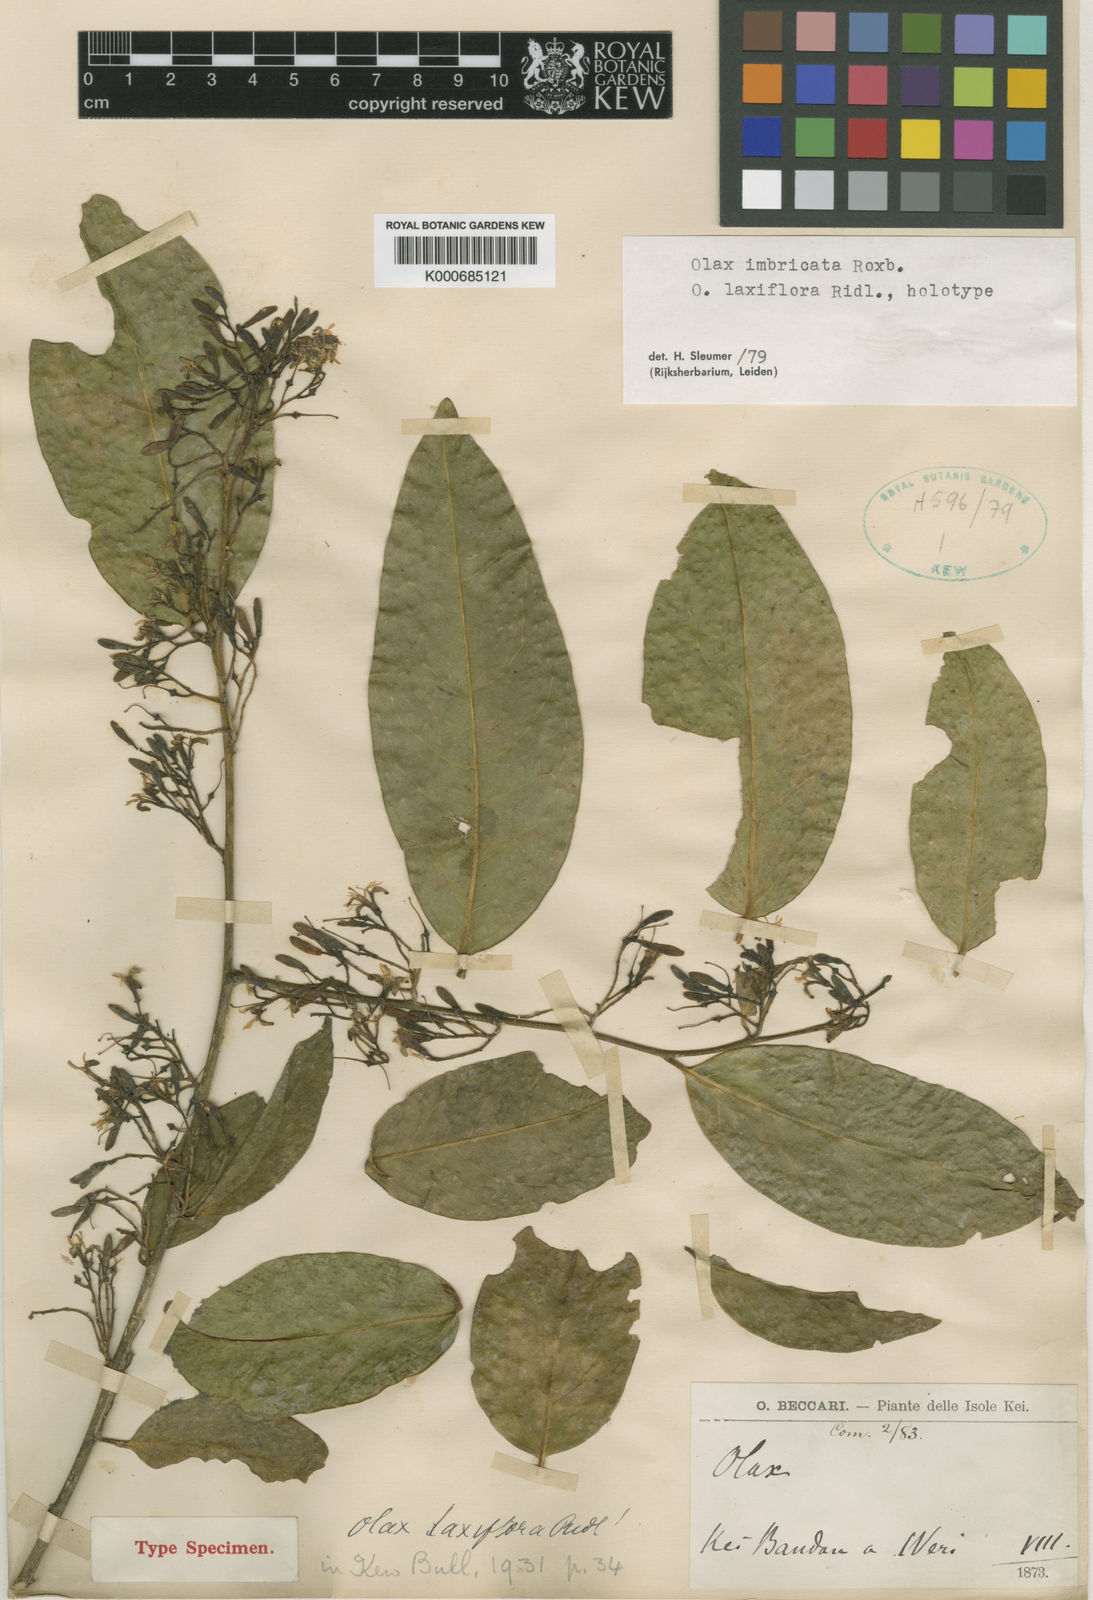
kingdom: Plantae
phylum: Tracheophyta
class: Magnoliopsida
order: Santalales
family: Olacaceae
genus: Olax
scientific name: Olax imbricata
